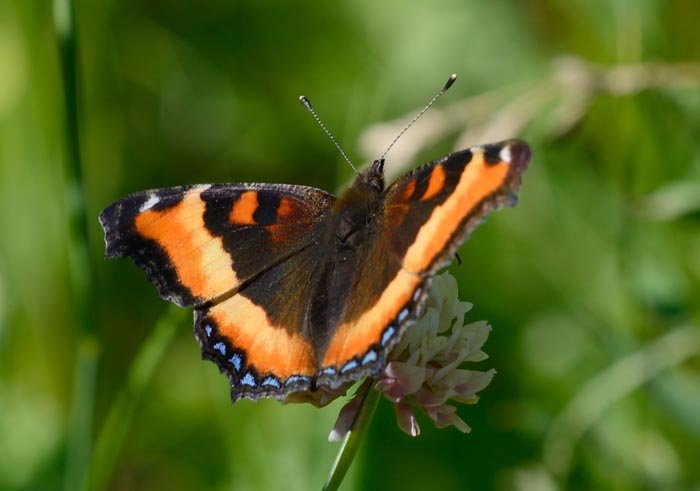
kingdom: Animalia
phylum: Arthropoda
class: Insecta
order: Lepidoptera
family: Nymphalidae
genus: Aglais
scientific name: Aglais milberti
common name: Milbert's Tortoiseshell
